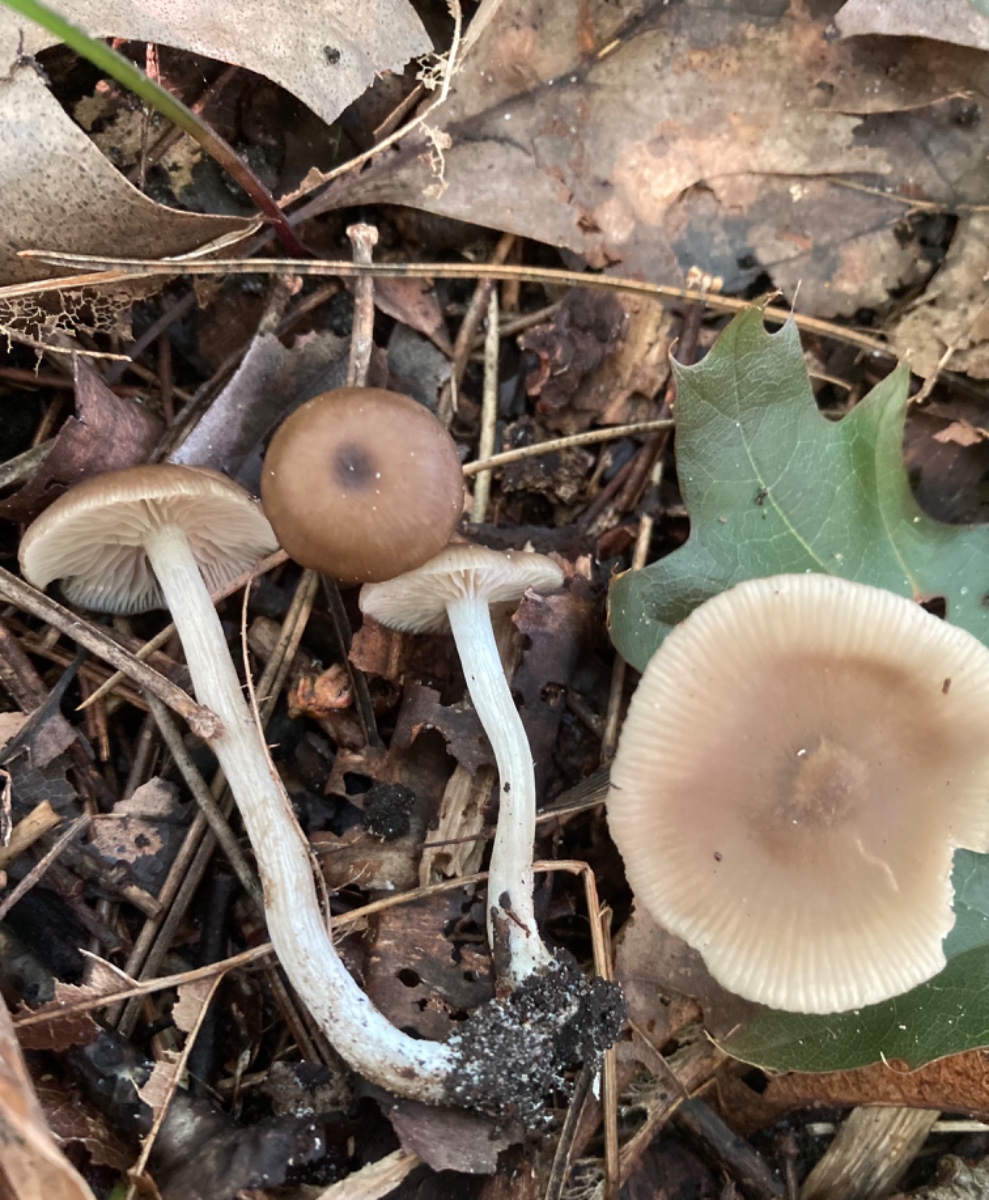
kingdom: Fungi
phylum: Basidiomycota
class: Agaricomycetes
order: Agaricales
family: Entolomataceae
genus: Entoloma
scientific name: Entoloma subradiatum
